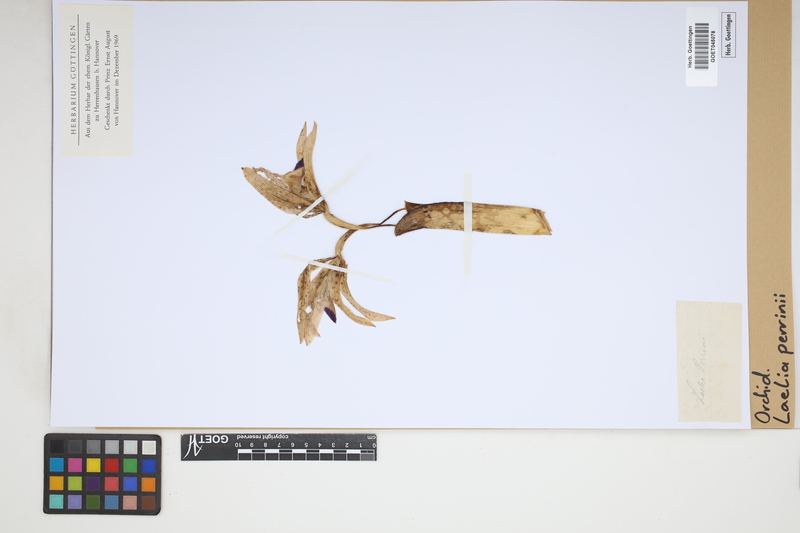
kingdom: Plantae
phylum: Tracheophyta
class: Liliopsida
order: Asparagales
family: Orchidaceae
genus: Cattleya
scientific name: Cattleya perrinii
